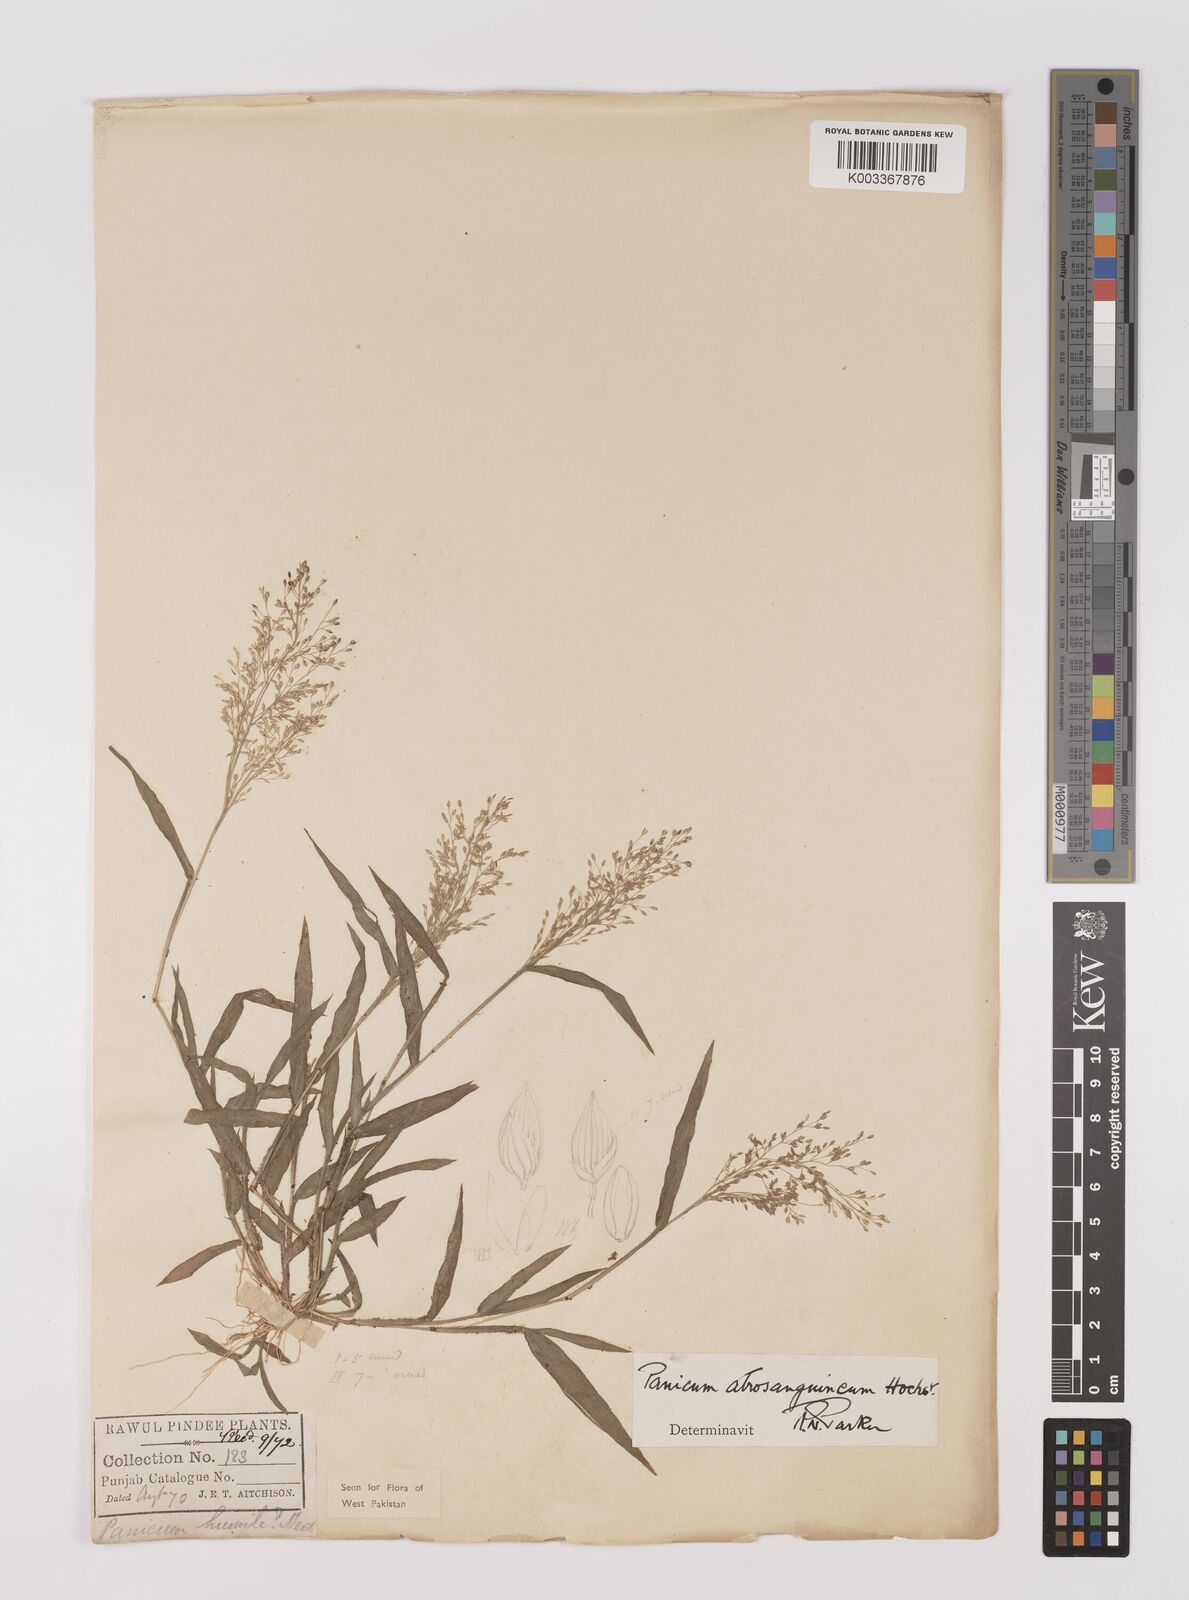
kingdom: Plantae
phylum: Tracheophyta
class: Liliopsida
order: Poales
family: Poaceae
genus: Panicum
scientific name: Panicum atrosanguineum
